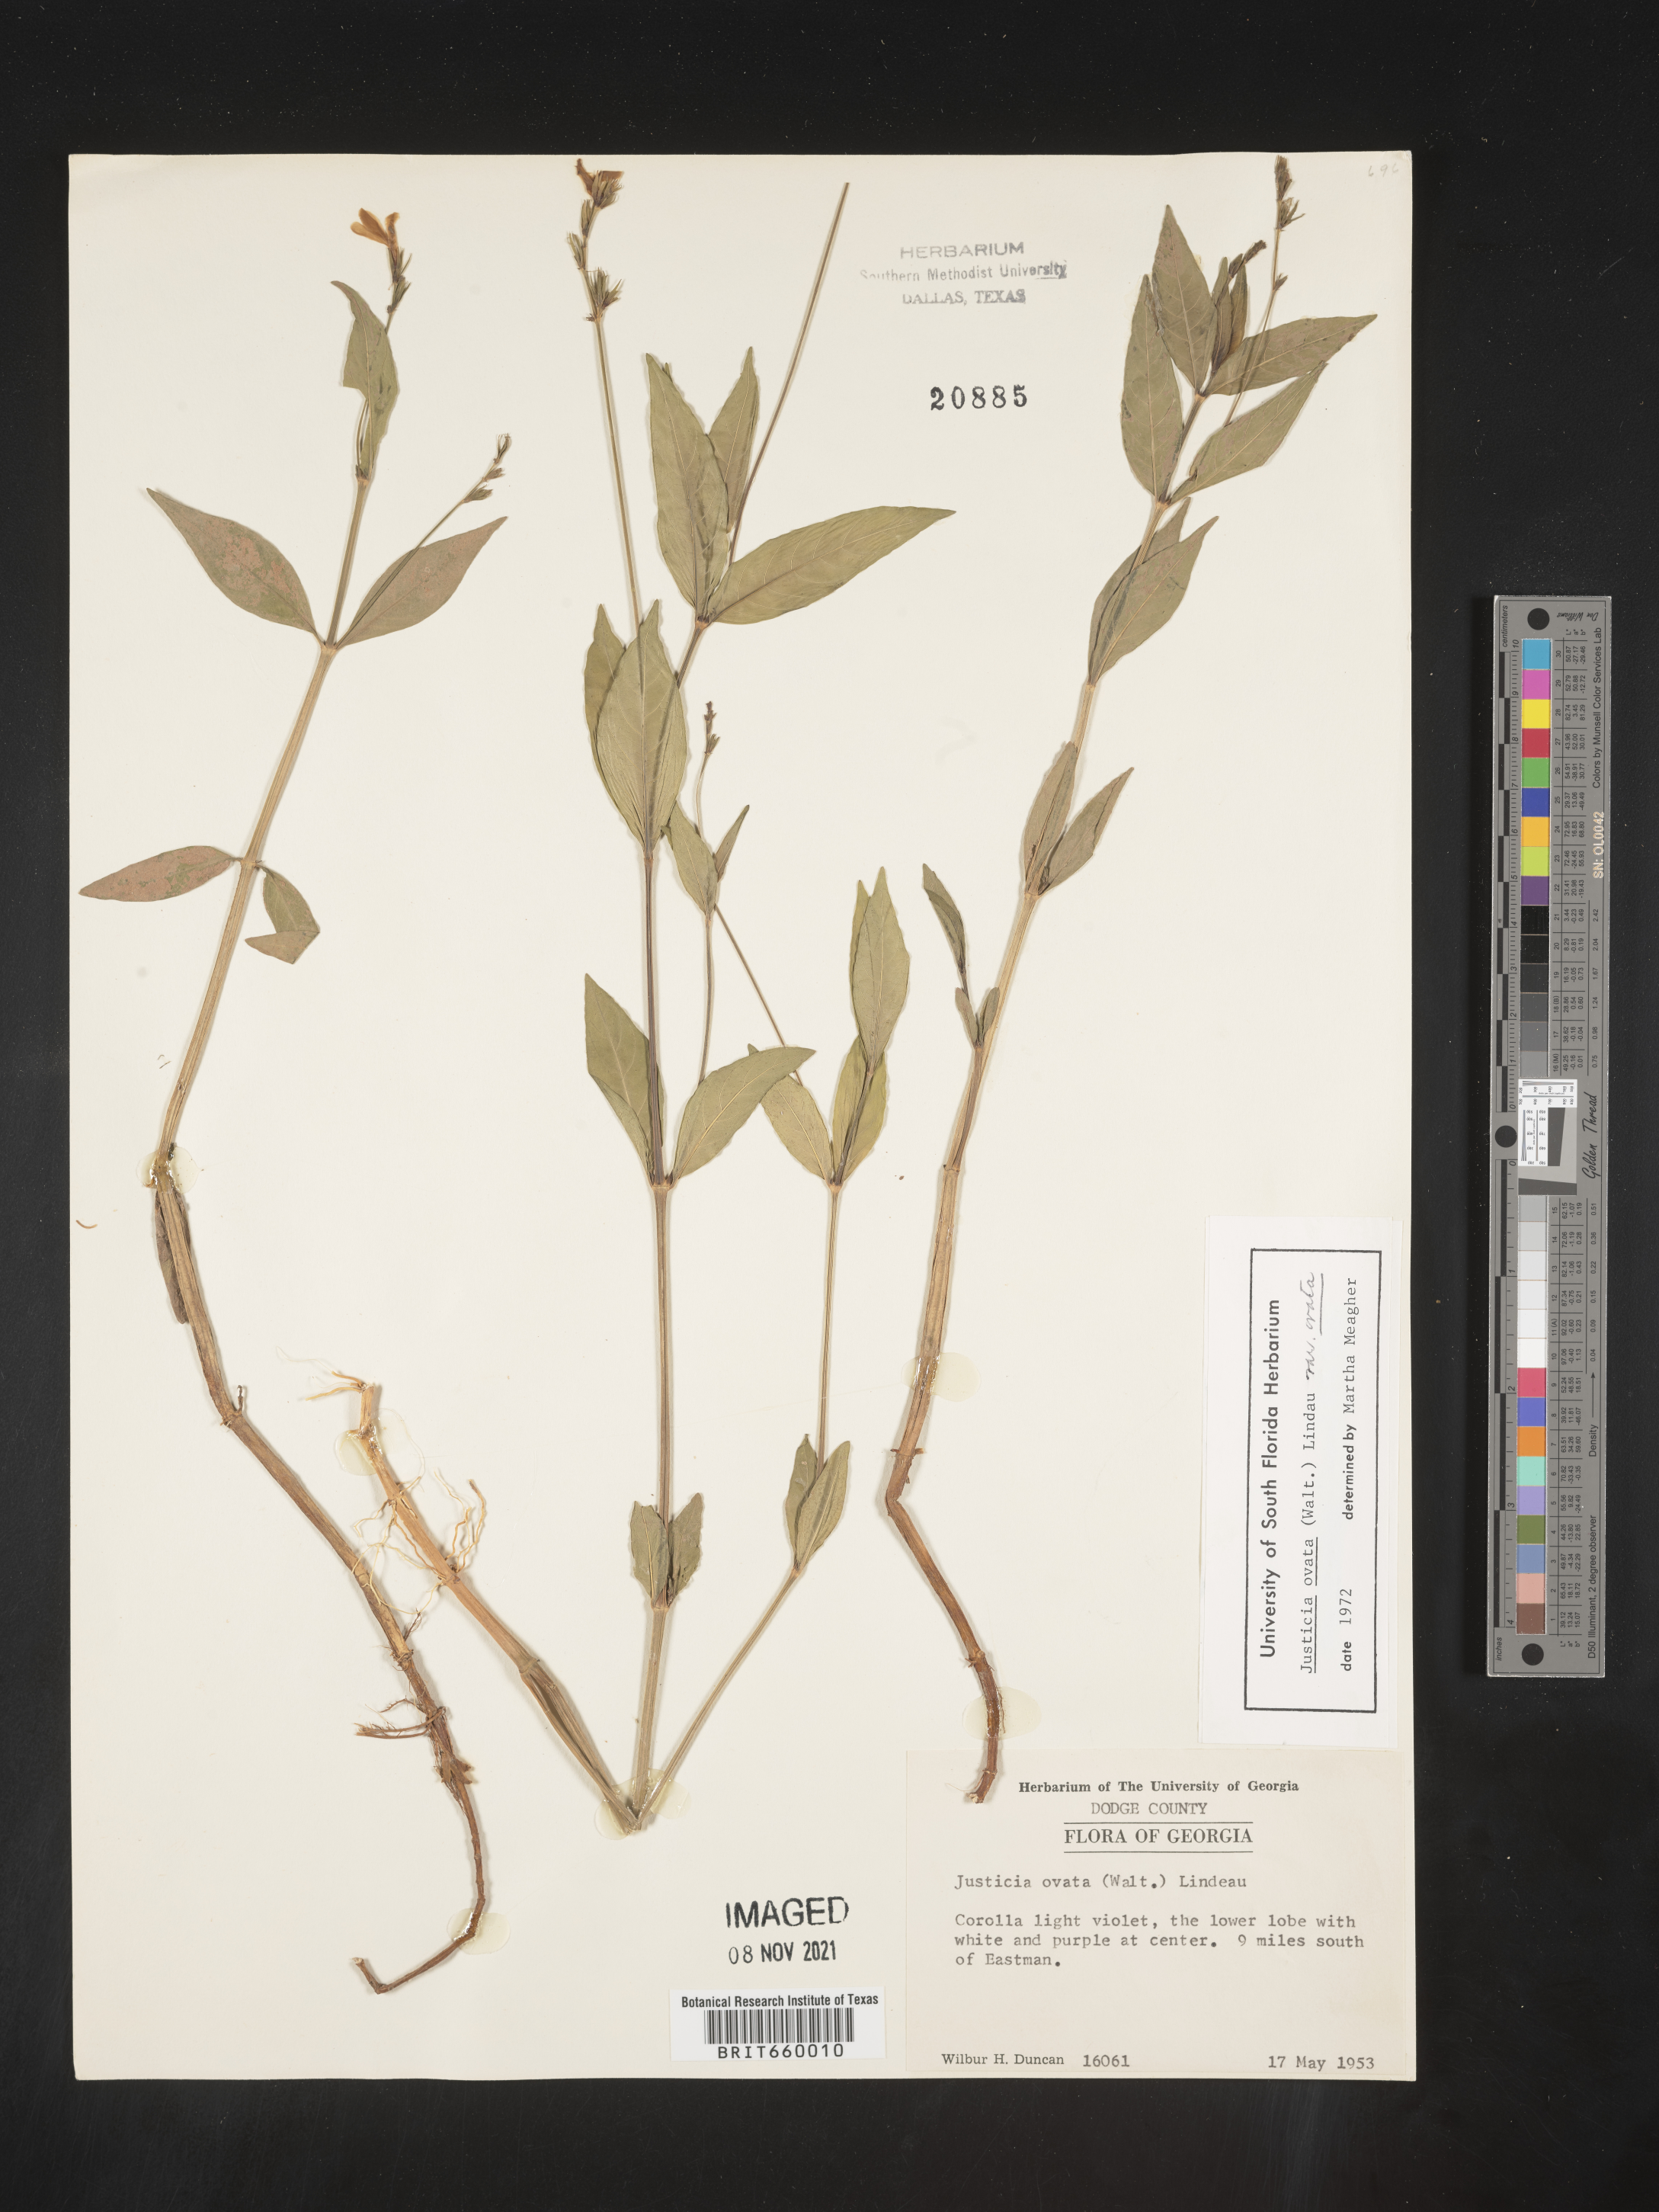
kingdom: Plantae
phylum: Tracheophyta
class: Magnoliopsida
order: Lamiales
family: Acanthaceae
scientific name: Acanthaceae
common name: Acanthaceae
